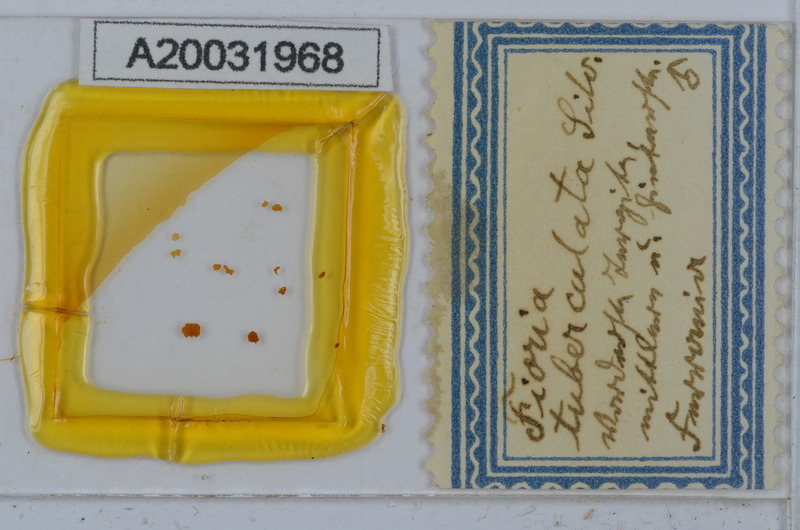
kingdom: Animalia
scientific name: Animalia
